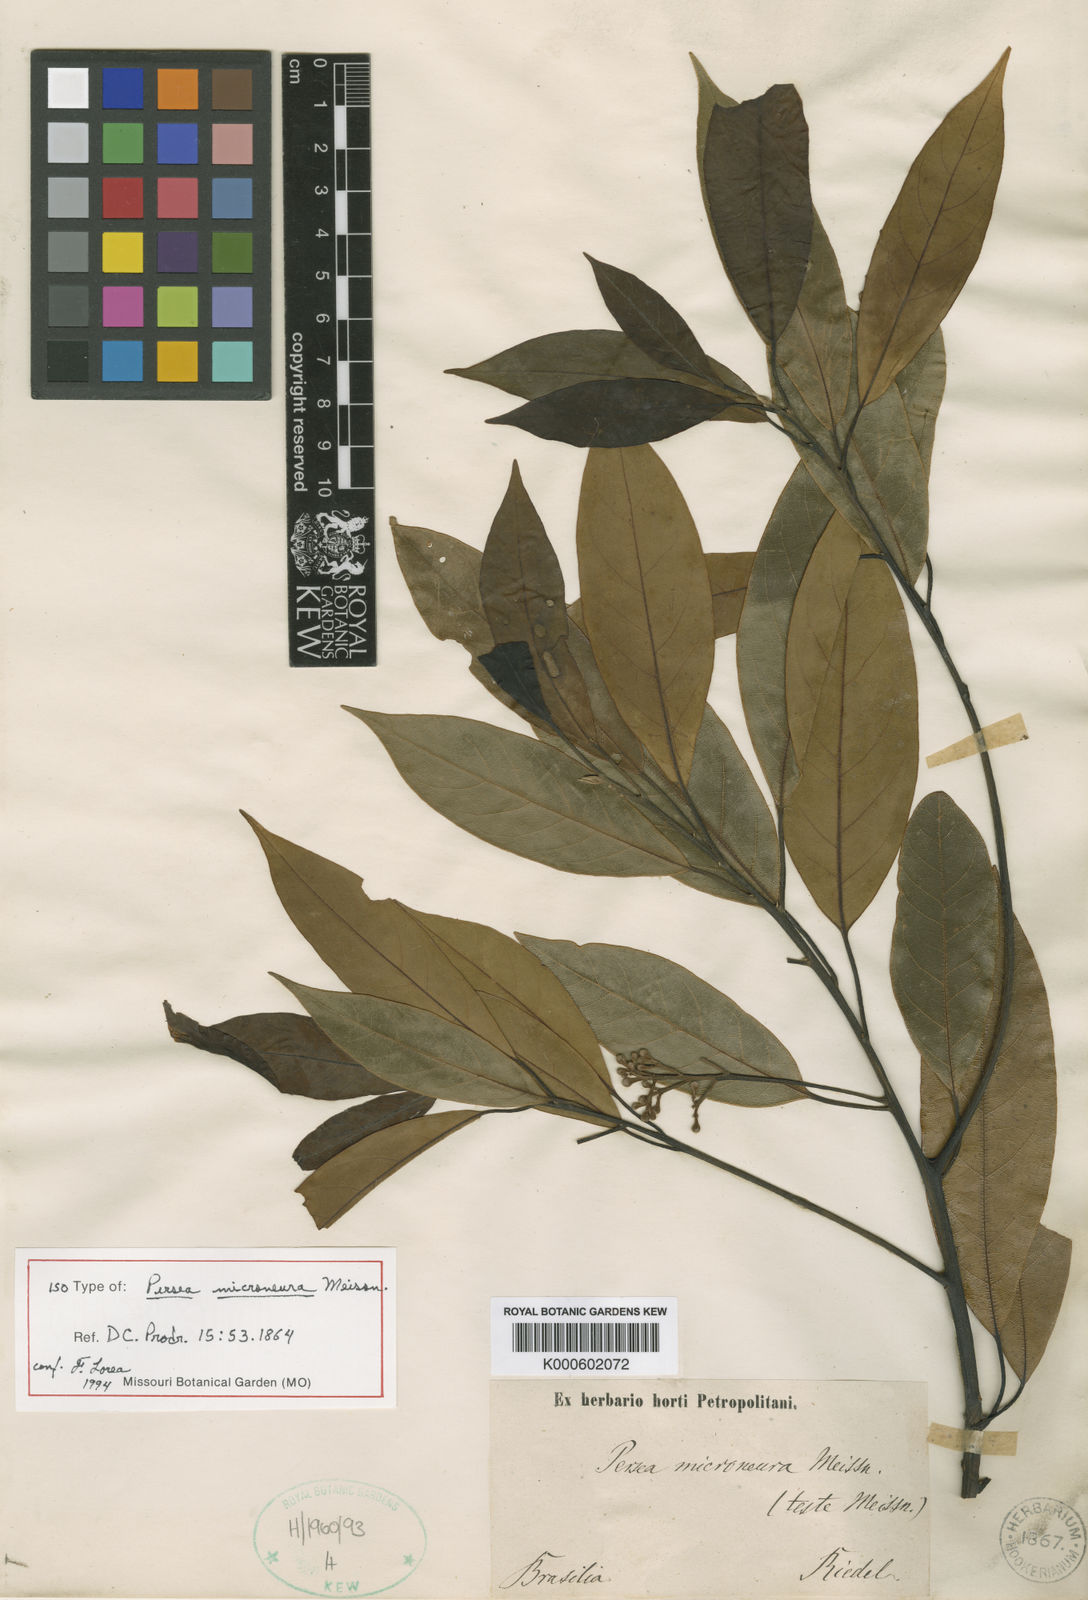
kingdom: Plantae
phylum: Tracheophyta
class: Magnoliopsida
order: Laurales
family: Lauraceae
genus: Persea
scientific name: Persea microneura
